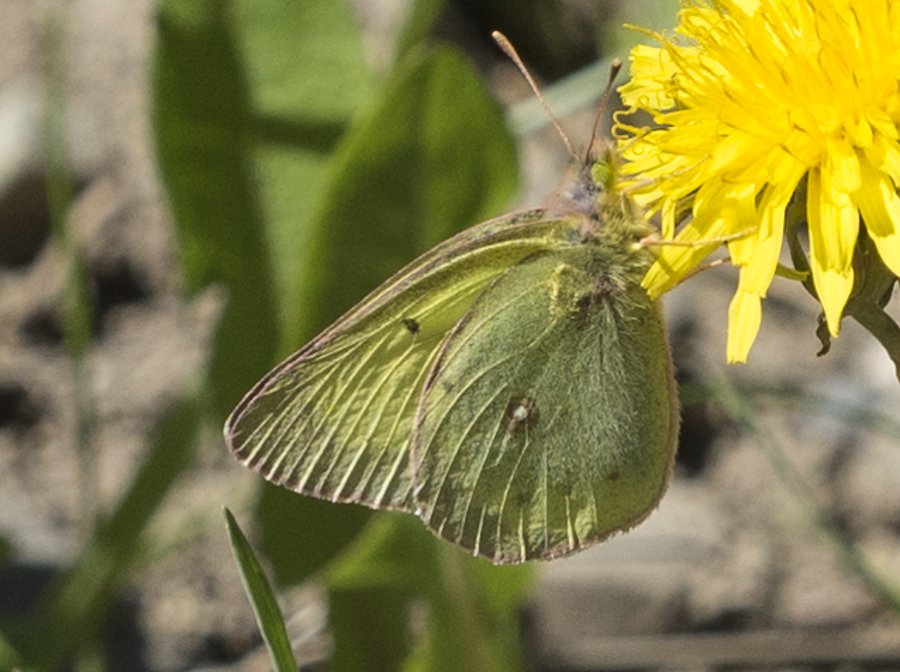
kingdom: Animalia
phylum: Arthropoda
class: Insecta
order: Lepidoptera
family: Pieridae
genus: Colias
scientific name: Colias philodice
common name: Clouded Sulphur
